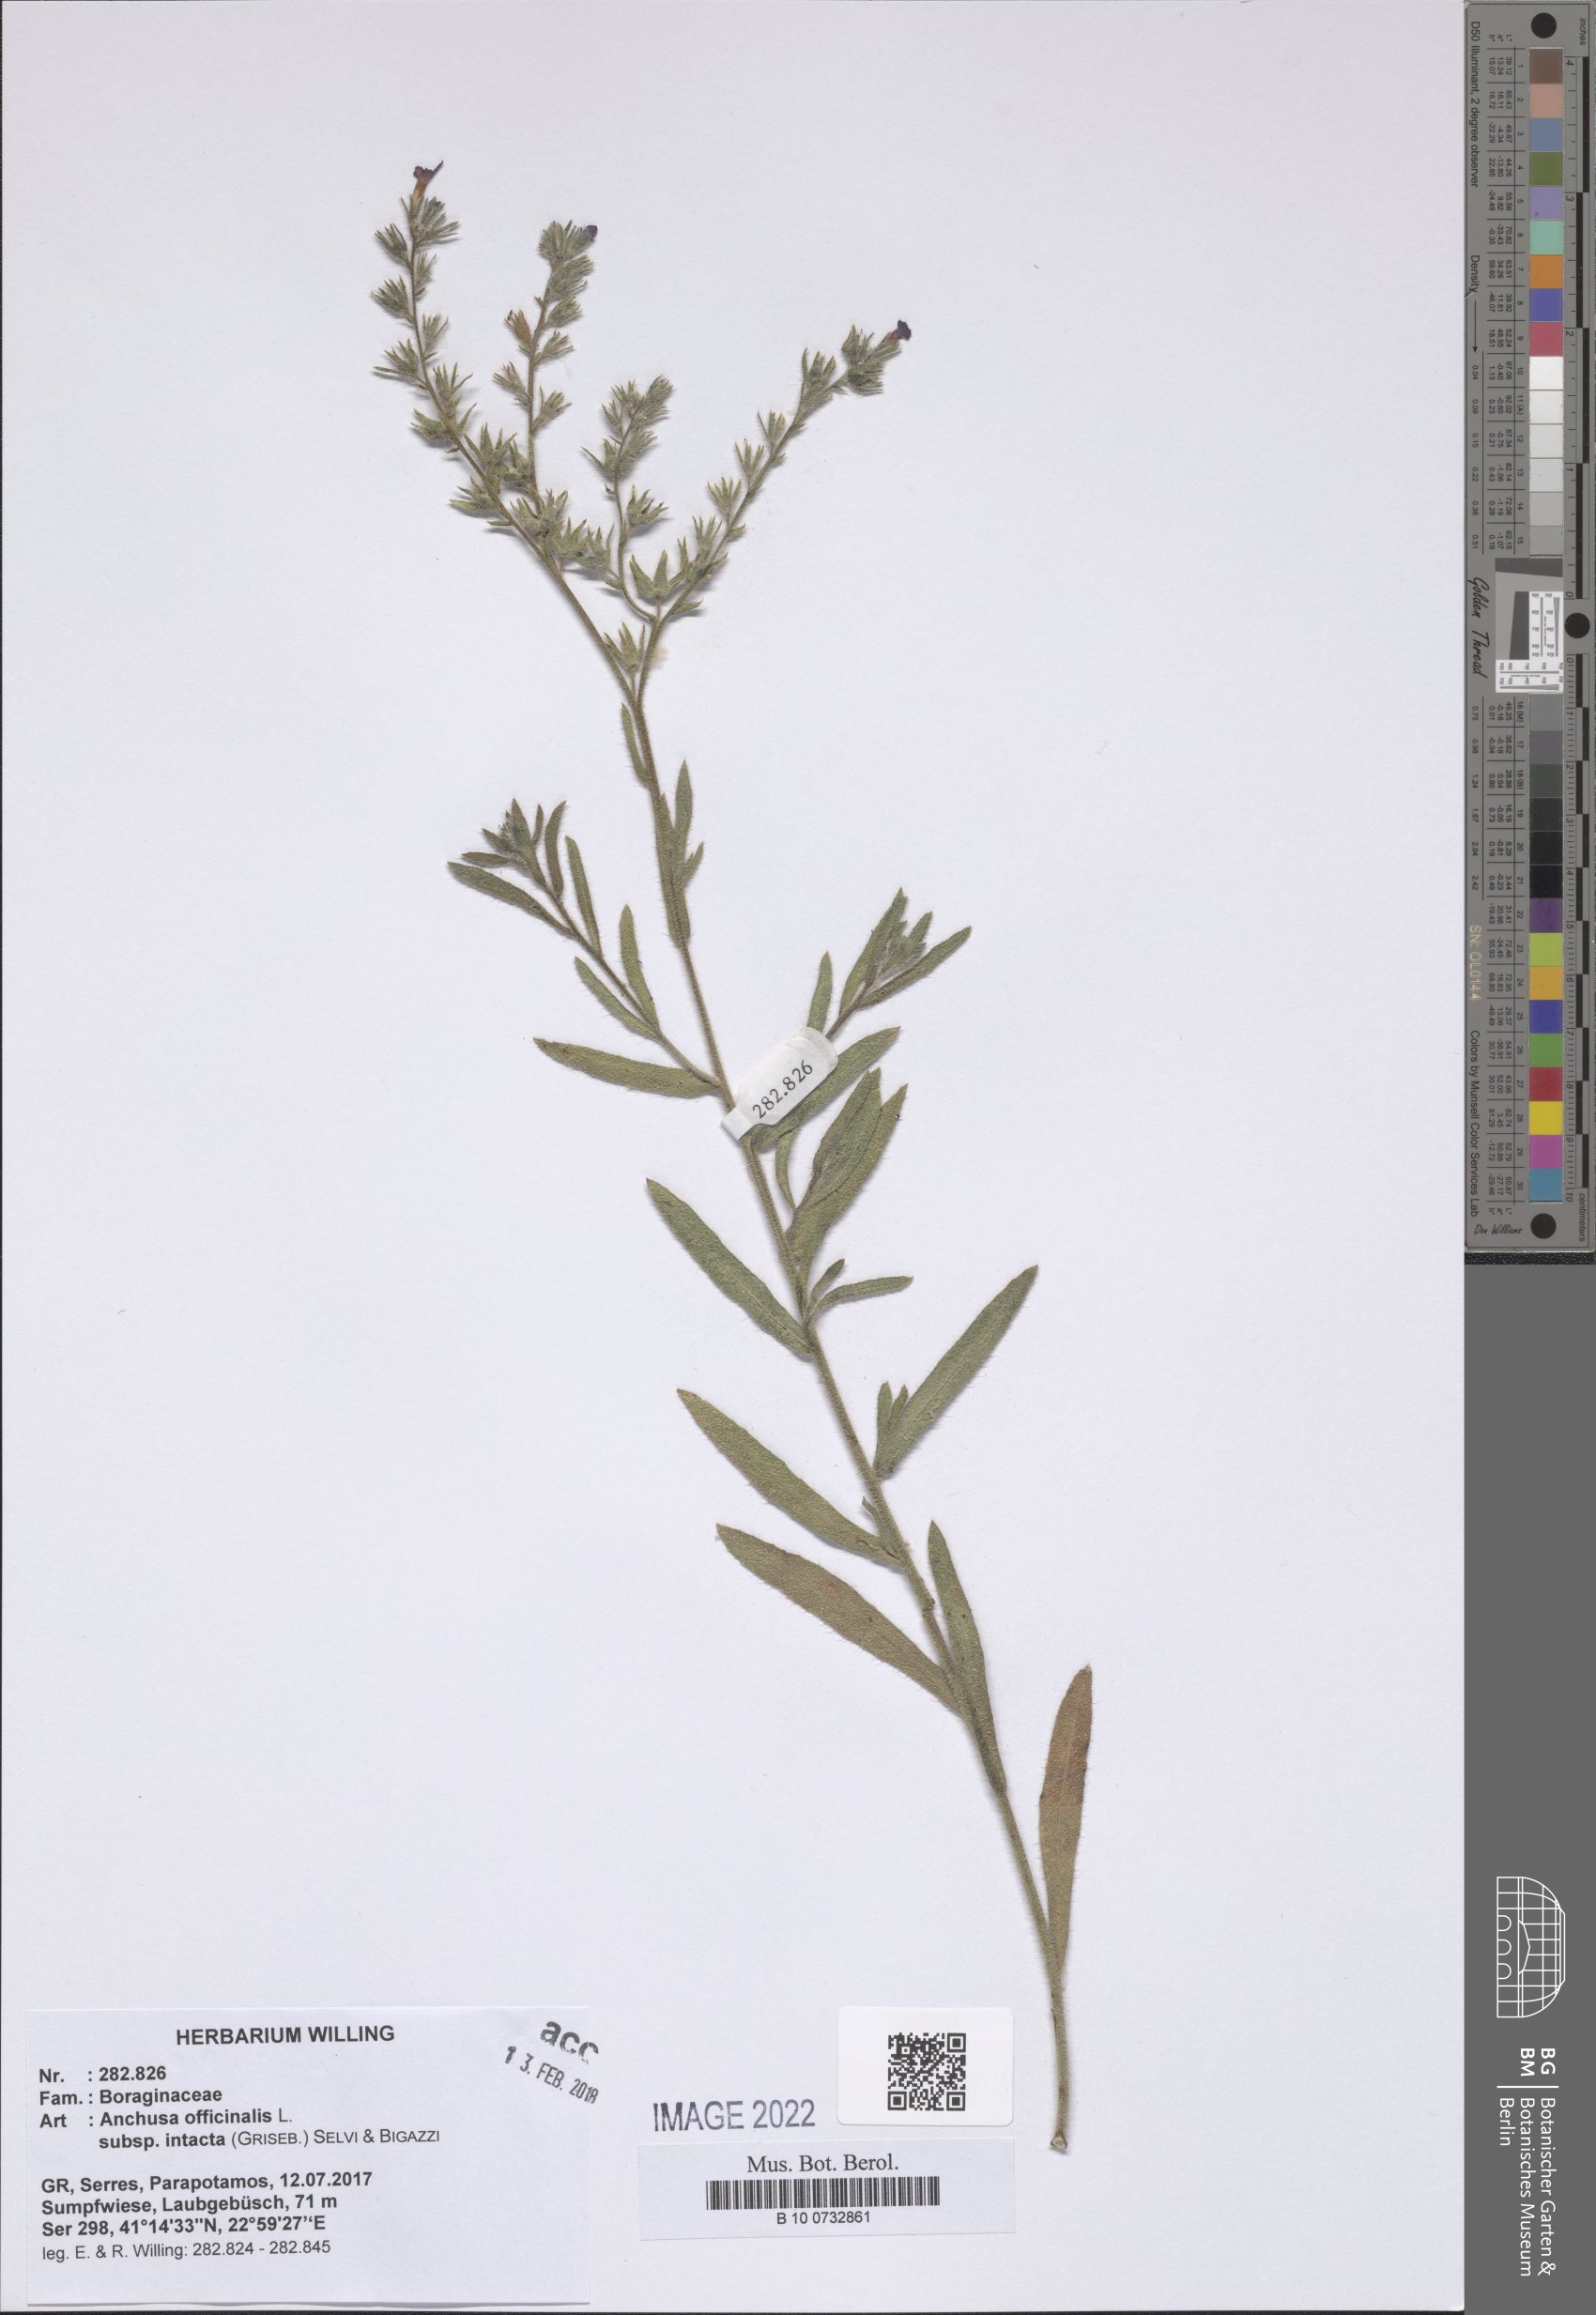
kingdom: Plantae
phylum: Tracheophyta
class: Magnoliopsida
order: Boraginales
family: Boraginaceae
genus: Anchusa
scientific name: Anchusa officinalis
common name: Alkanet
